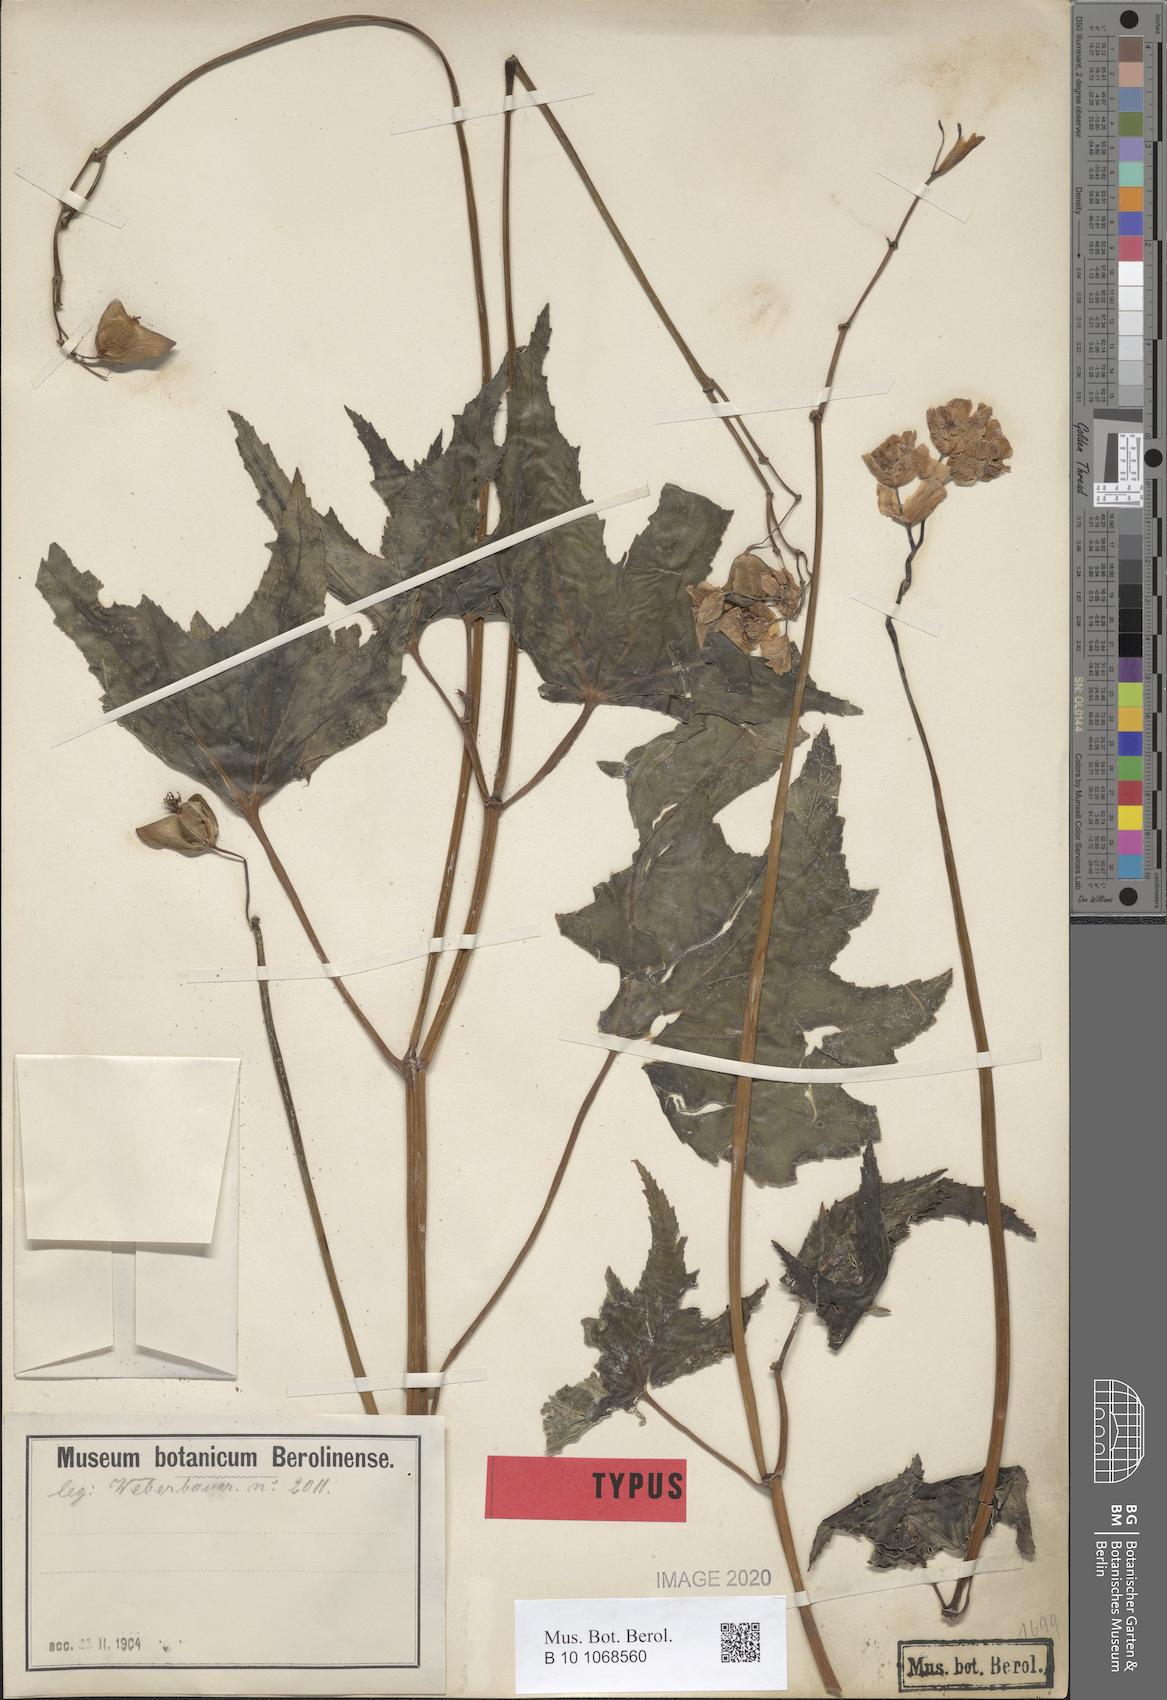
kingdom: Plantae
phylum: Tracheophyta
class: Magnoliopsida
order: Cucurbitales
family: Begoniaceae
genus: Begonia
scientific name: Begonia acerifolia
